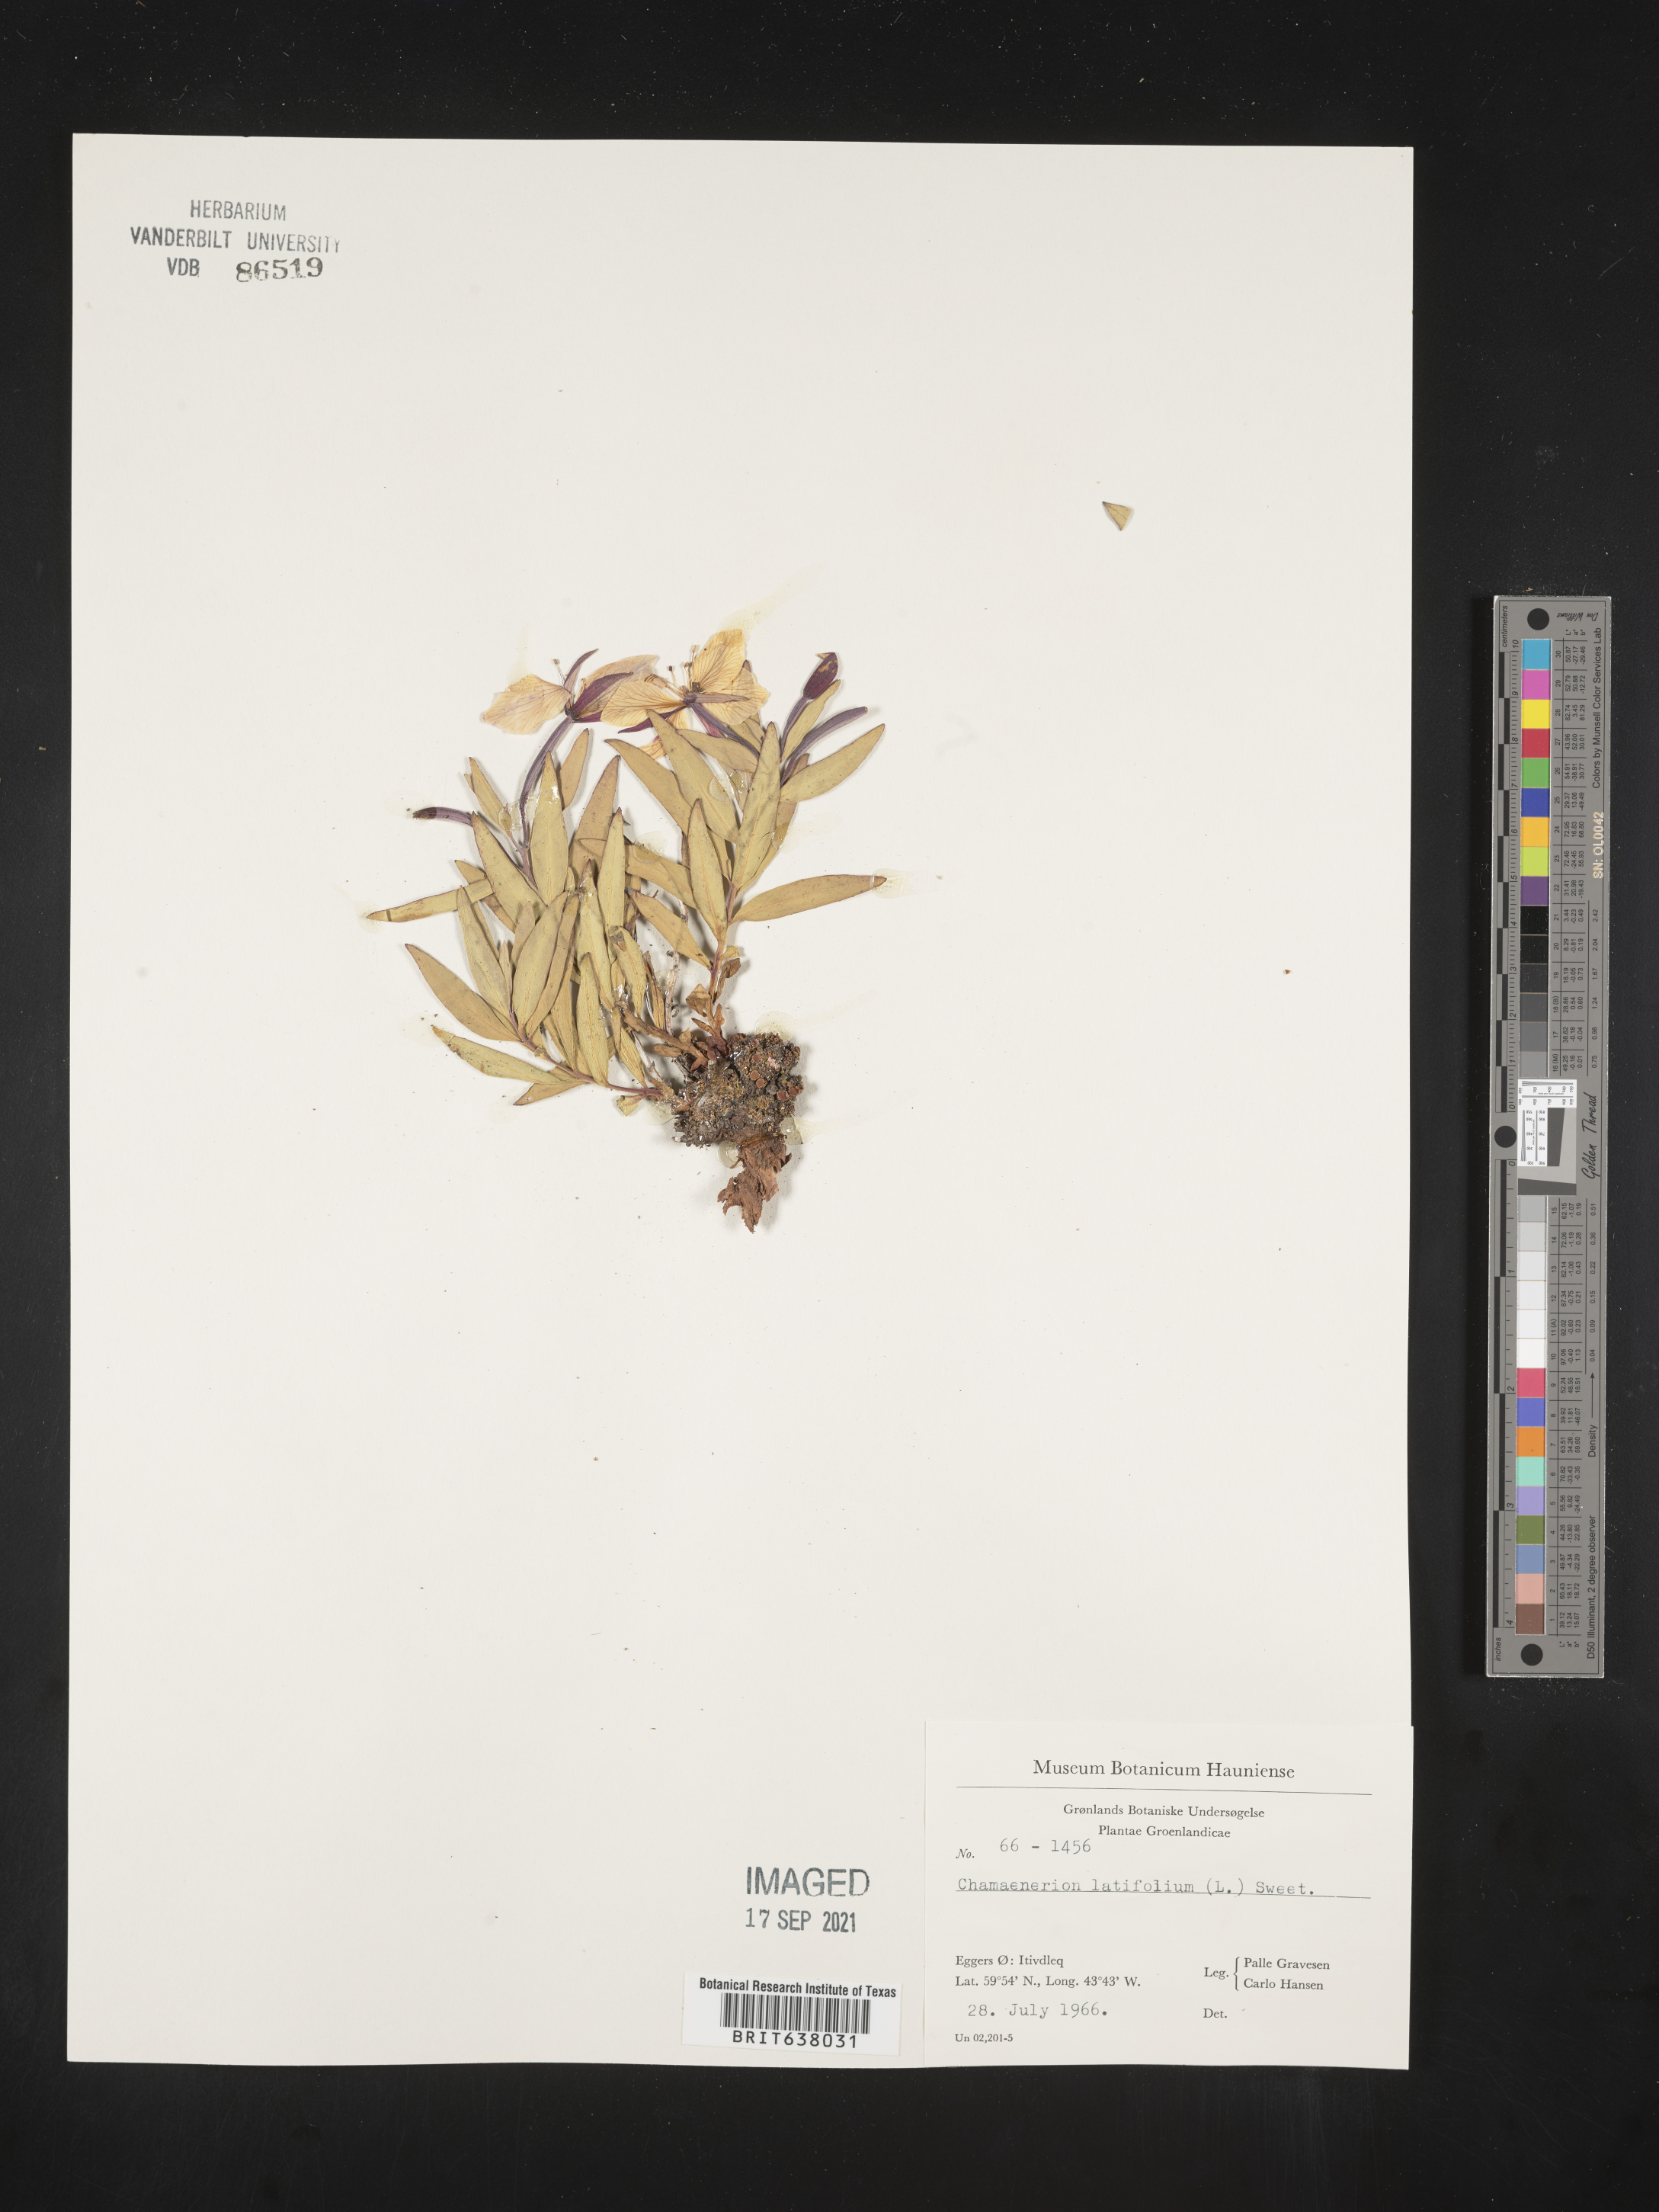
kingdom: Plantae
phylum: Tracheophyta
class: Magnoliopsida
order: Myrtales
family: Onagraceae
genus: Chamaenerion
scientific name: Chamaenerion
